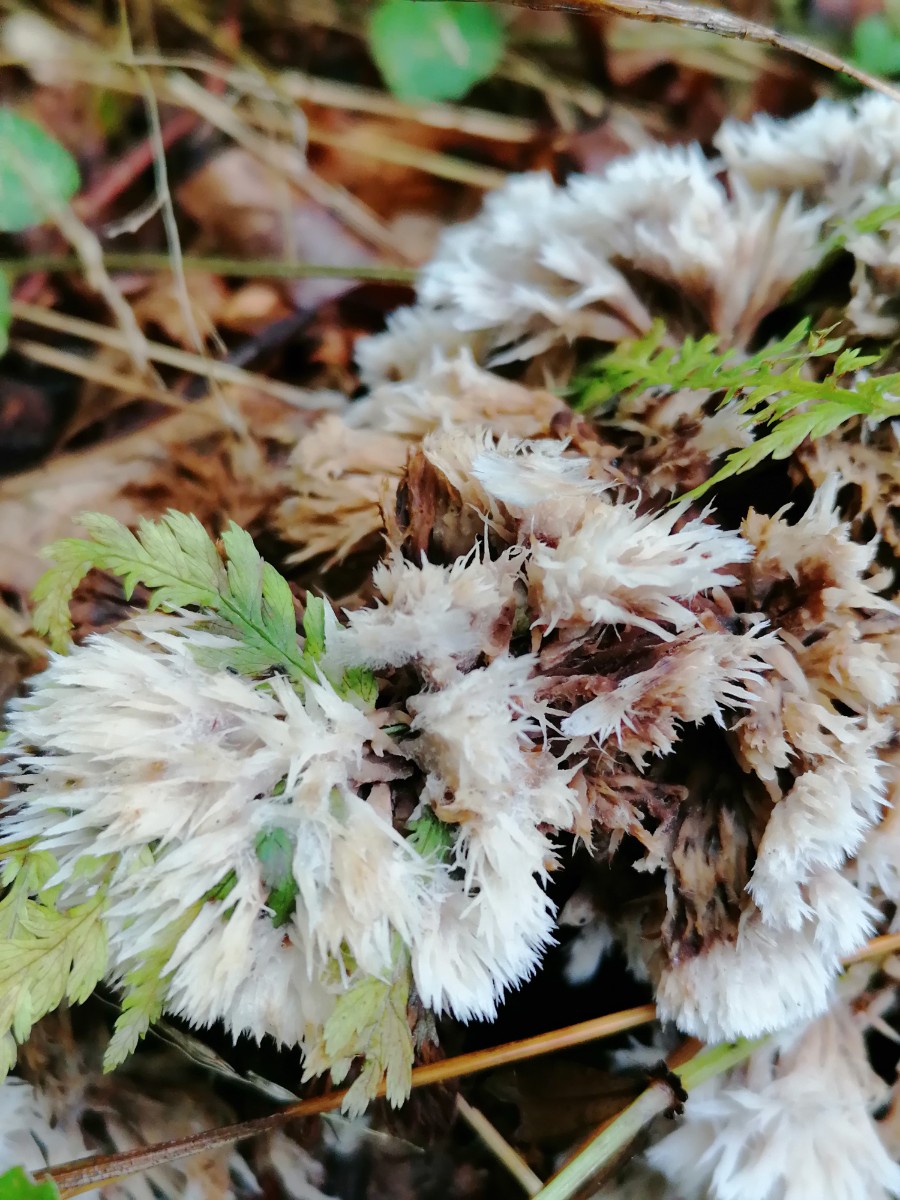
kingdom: Fungi
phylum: Basidiomycota
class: Agaricomycetes
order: Thelephorales
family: Thelephoraceae
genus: Thelephora
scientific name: Thelephora penicillata
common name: fladtrådt frynsesvamp
